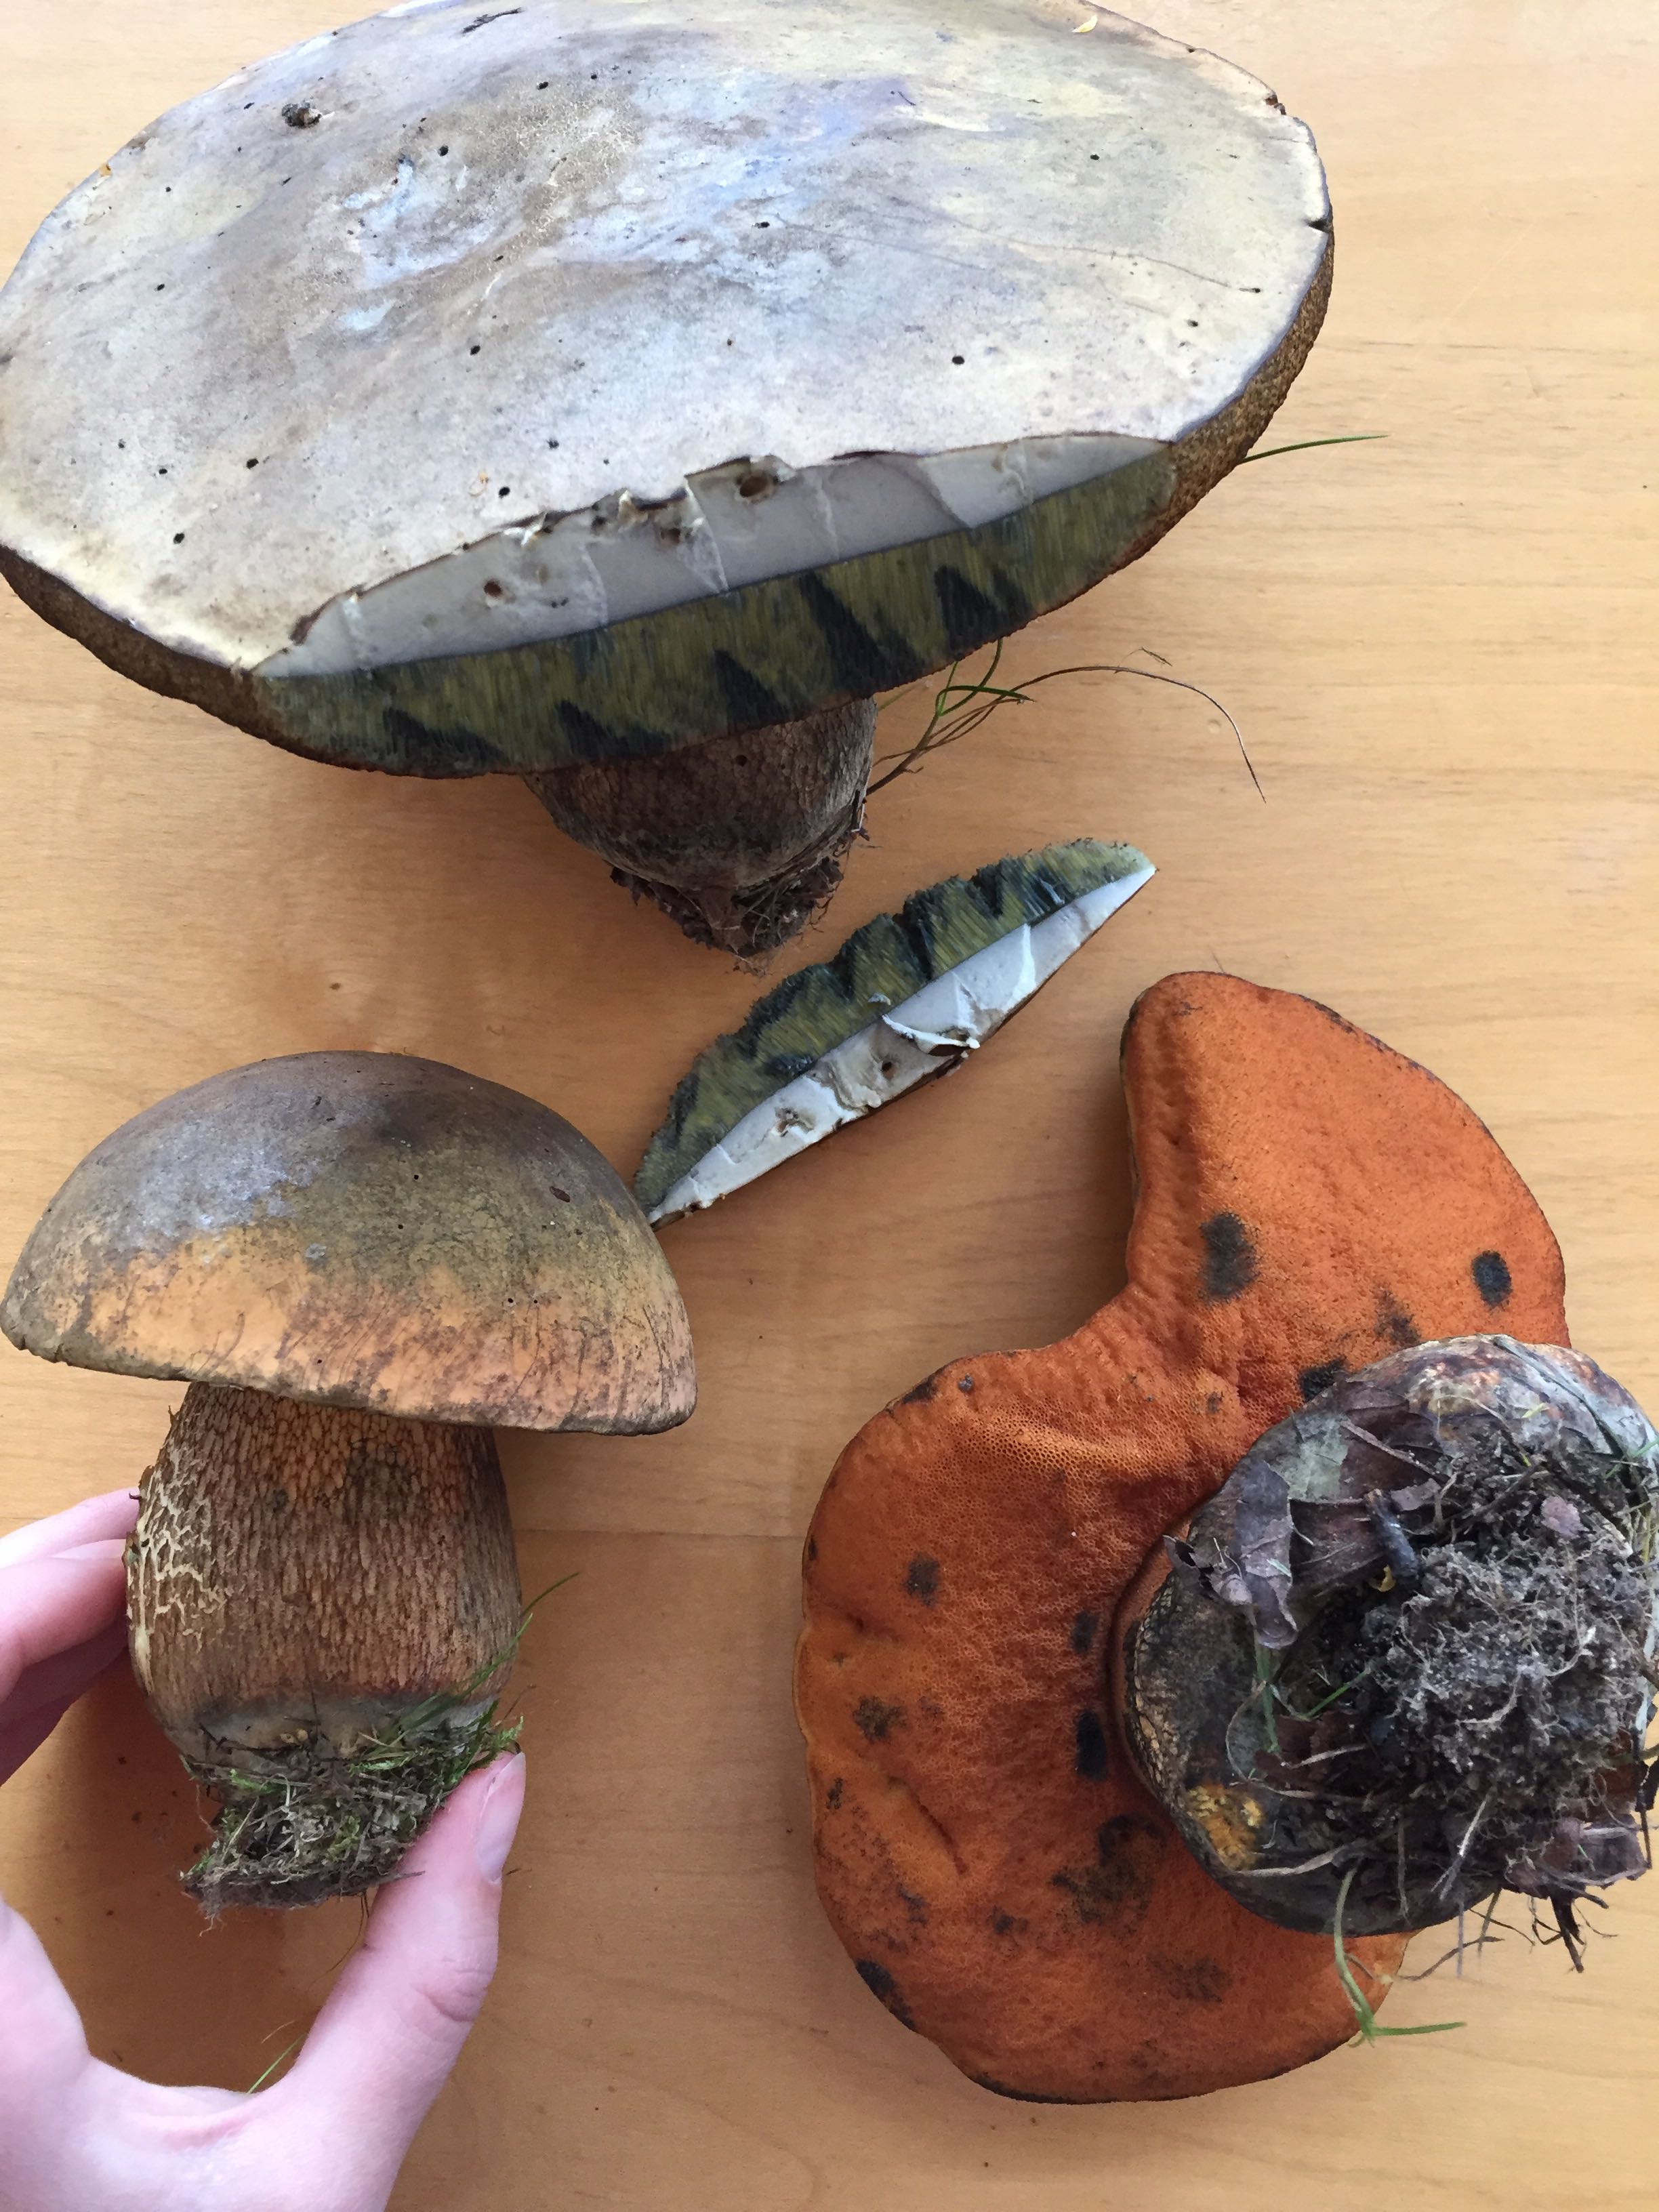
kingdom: Fungi
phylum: Basidiomycota
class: Agaricomycetes
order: Boletales
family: Boletaceae
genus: Suillellus
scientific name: Suillellus luridus
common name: netstokket indigorørhat
